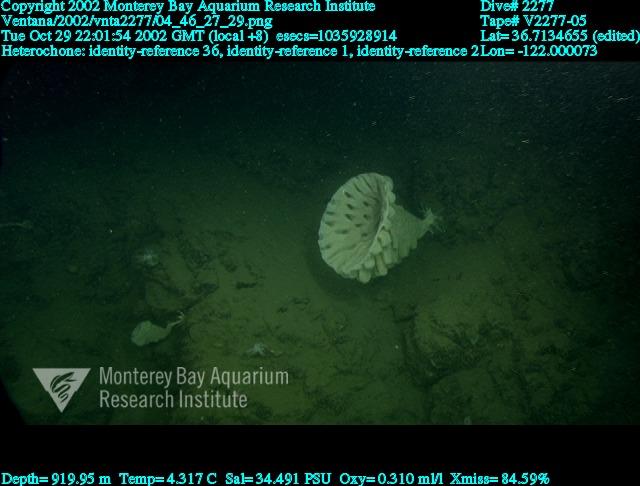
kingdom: Animalia
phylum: Porifera
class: Hexactinellida
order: Sceptrulophora
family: Aphrocallistidae
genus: Heterochone
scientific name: Heterochone
